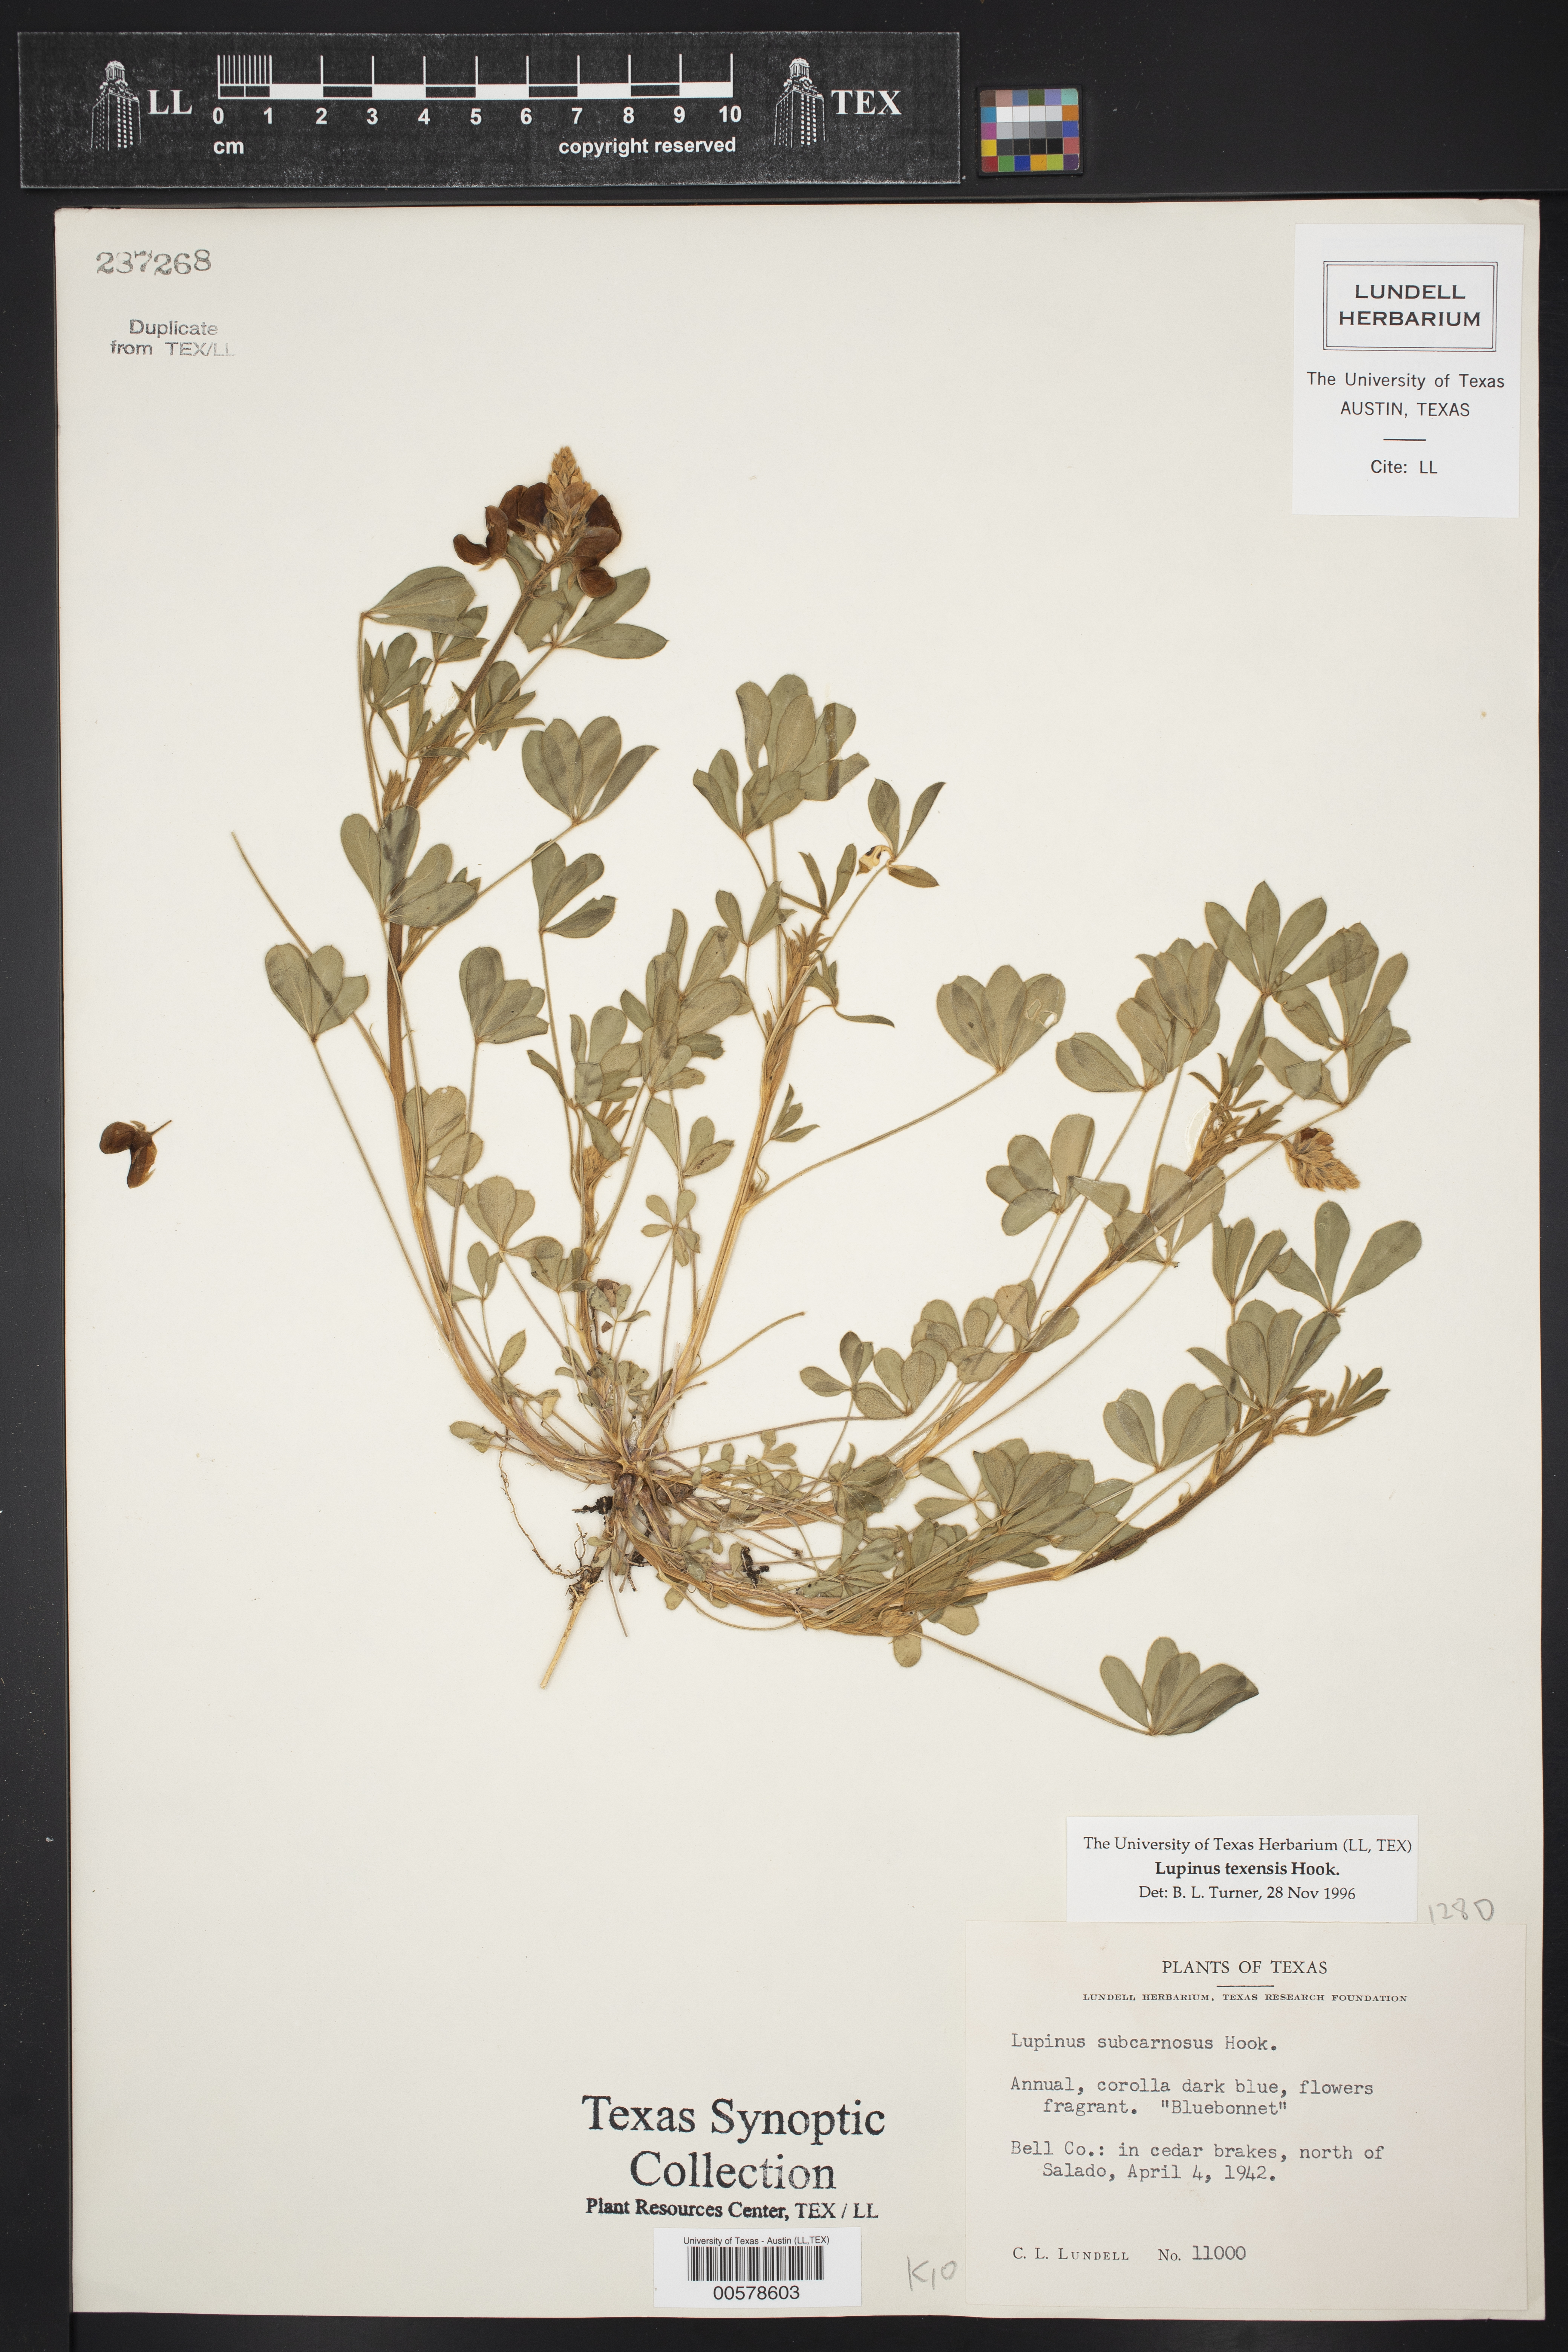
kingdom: Plantae
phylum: Tracheophyta
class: Magnoliopsida
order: Fabales
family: Fabaceae
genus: Lupinus
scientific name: Lupinus texensis
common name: Texas bluebonnet
